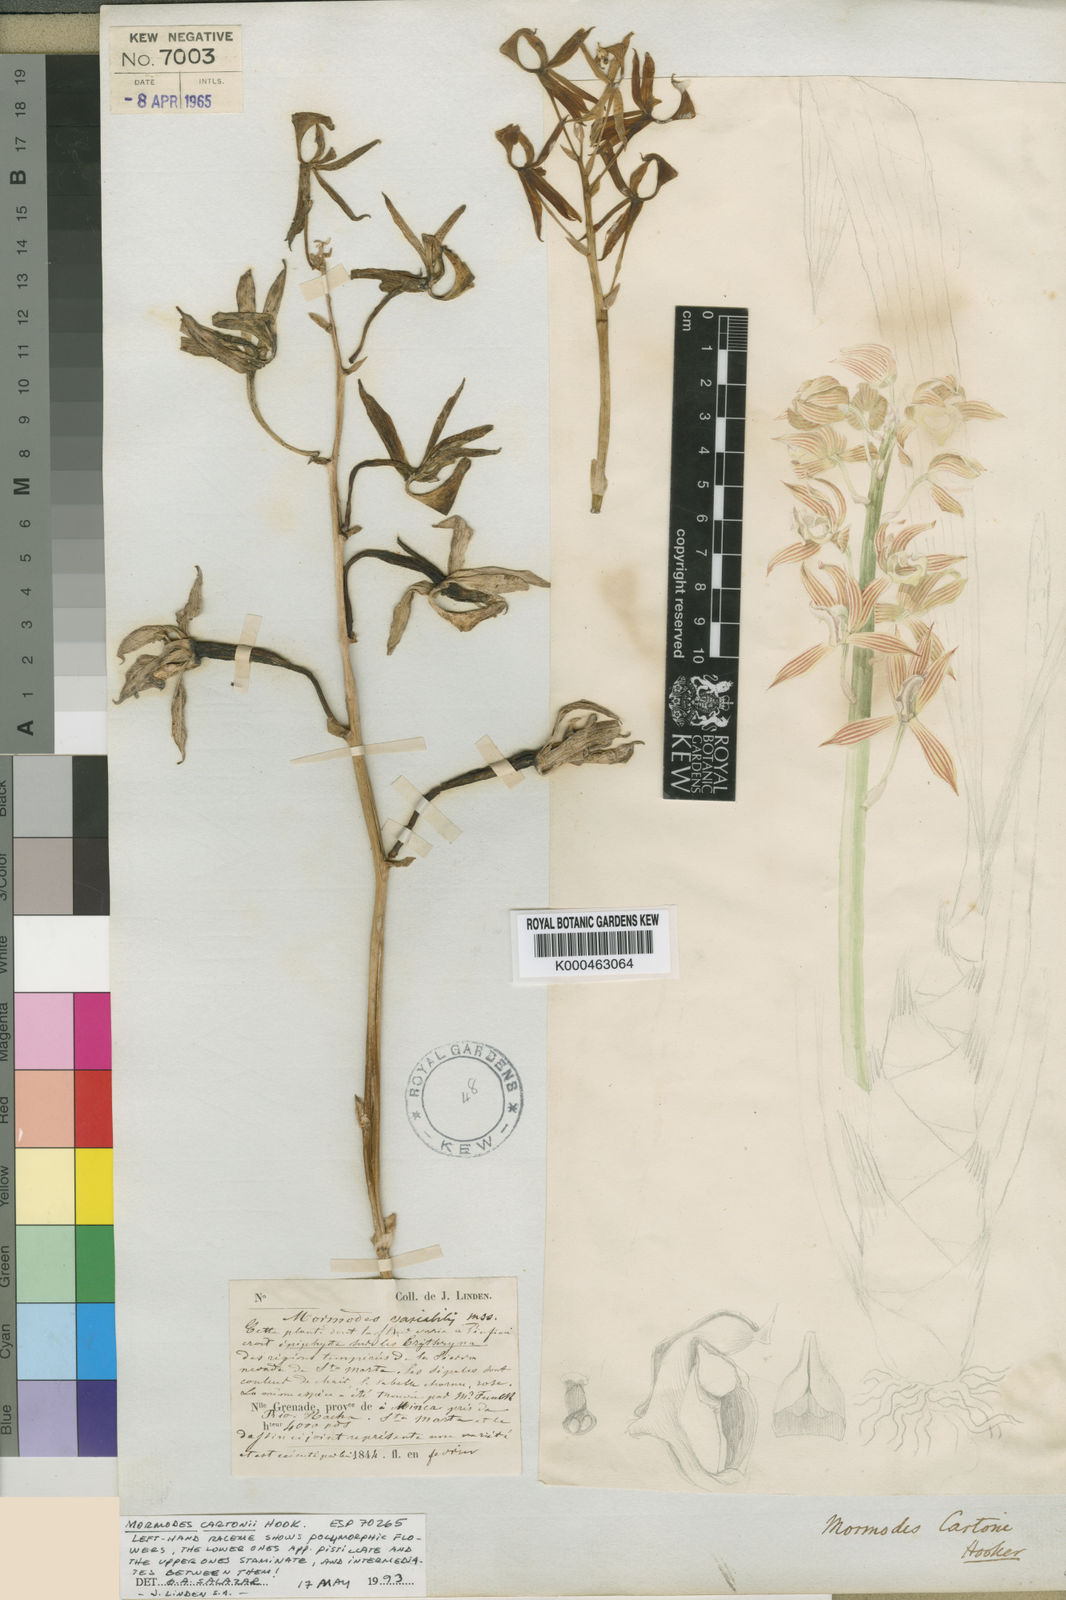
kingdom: Plantae
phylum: Tracheophyta
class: Liliopsida
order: Asparagales
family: Orchidaceae
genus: Mormodes
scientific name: Mormodes cartonii
